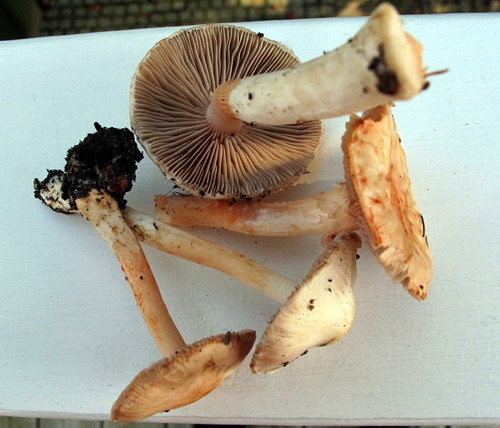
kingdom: Fungi
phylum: Basidiomycota
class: Agaricomycetes
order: Agaricales
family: Inocybaceae
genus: Inocybe
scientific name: Inocybe
